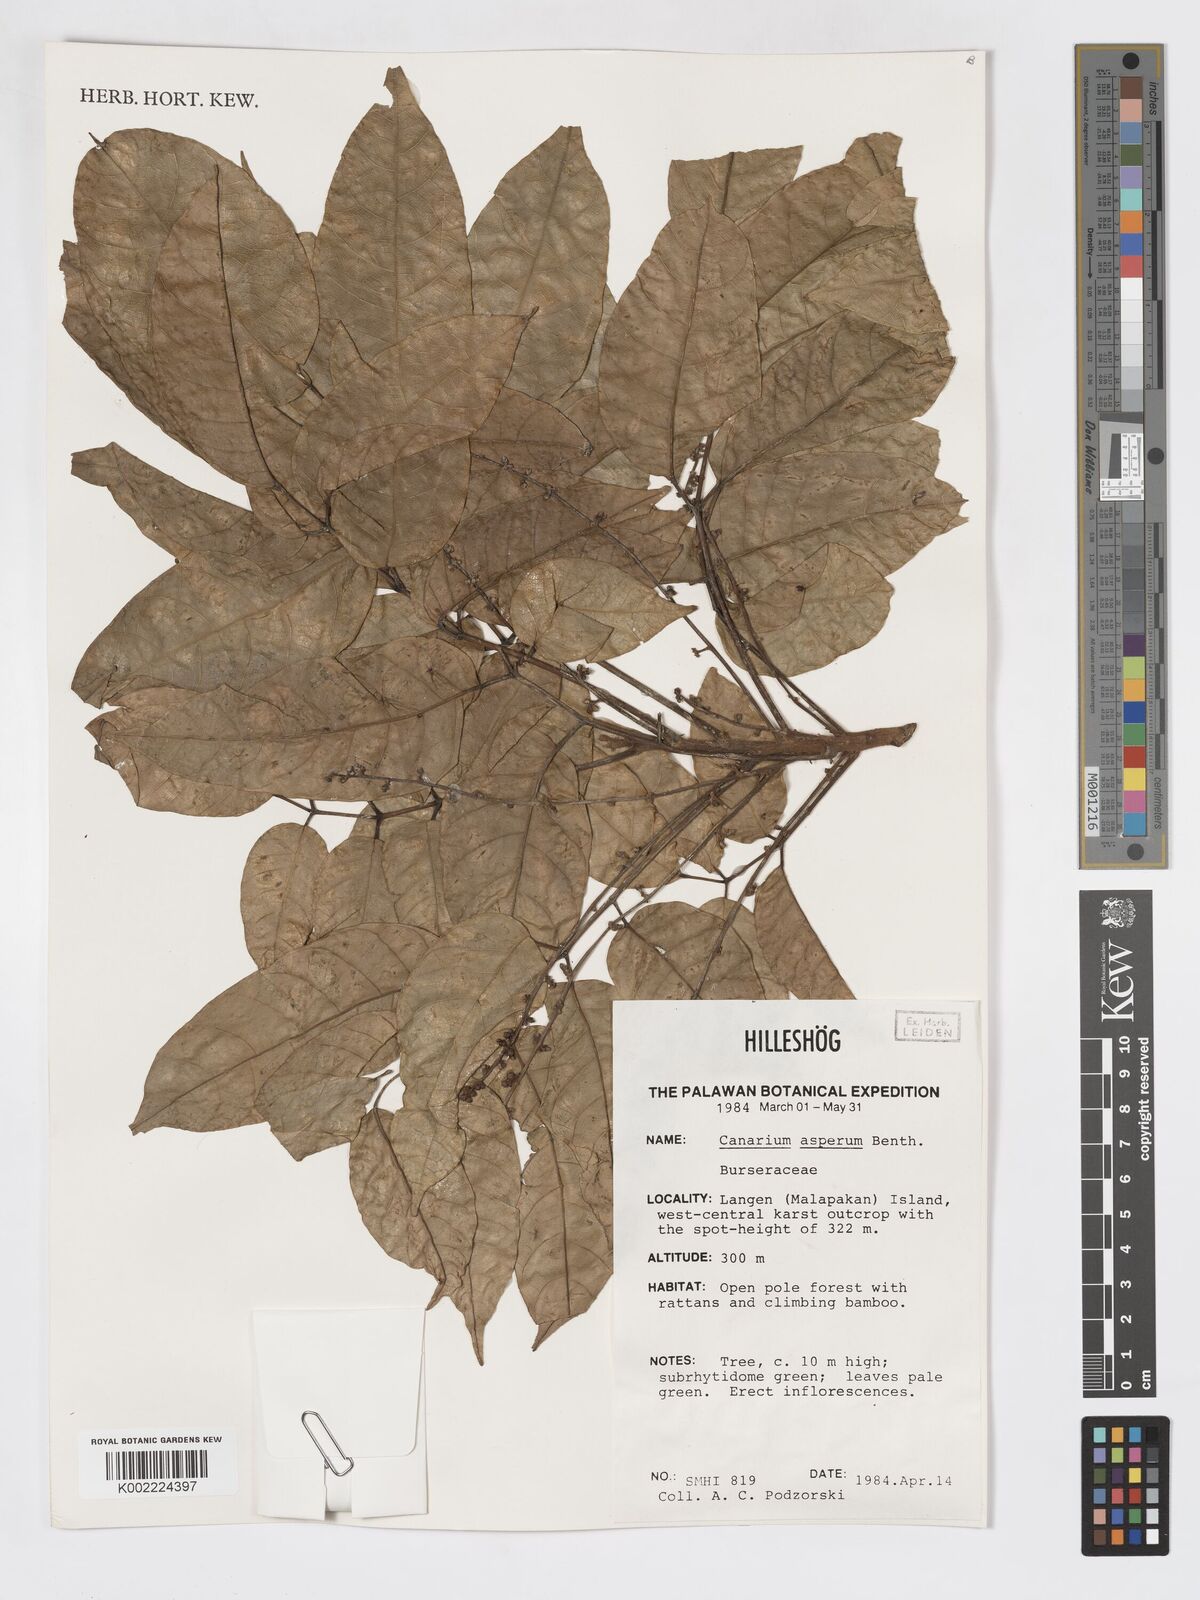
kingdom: Plantae
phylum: Tracheophyta
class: Magnoliopsida
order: Sapindales
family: Burseraceae
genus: Canarium
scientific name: Canarium asperum
